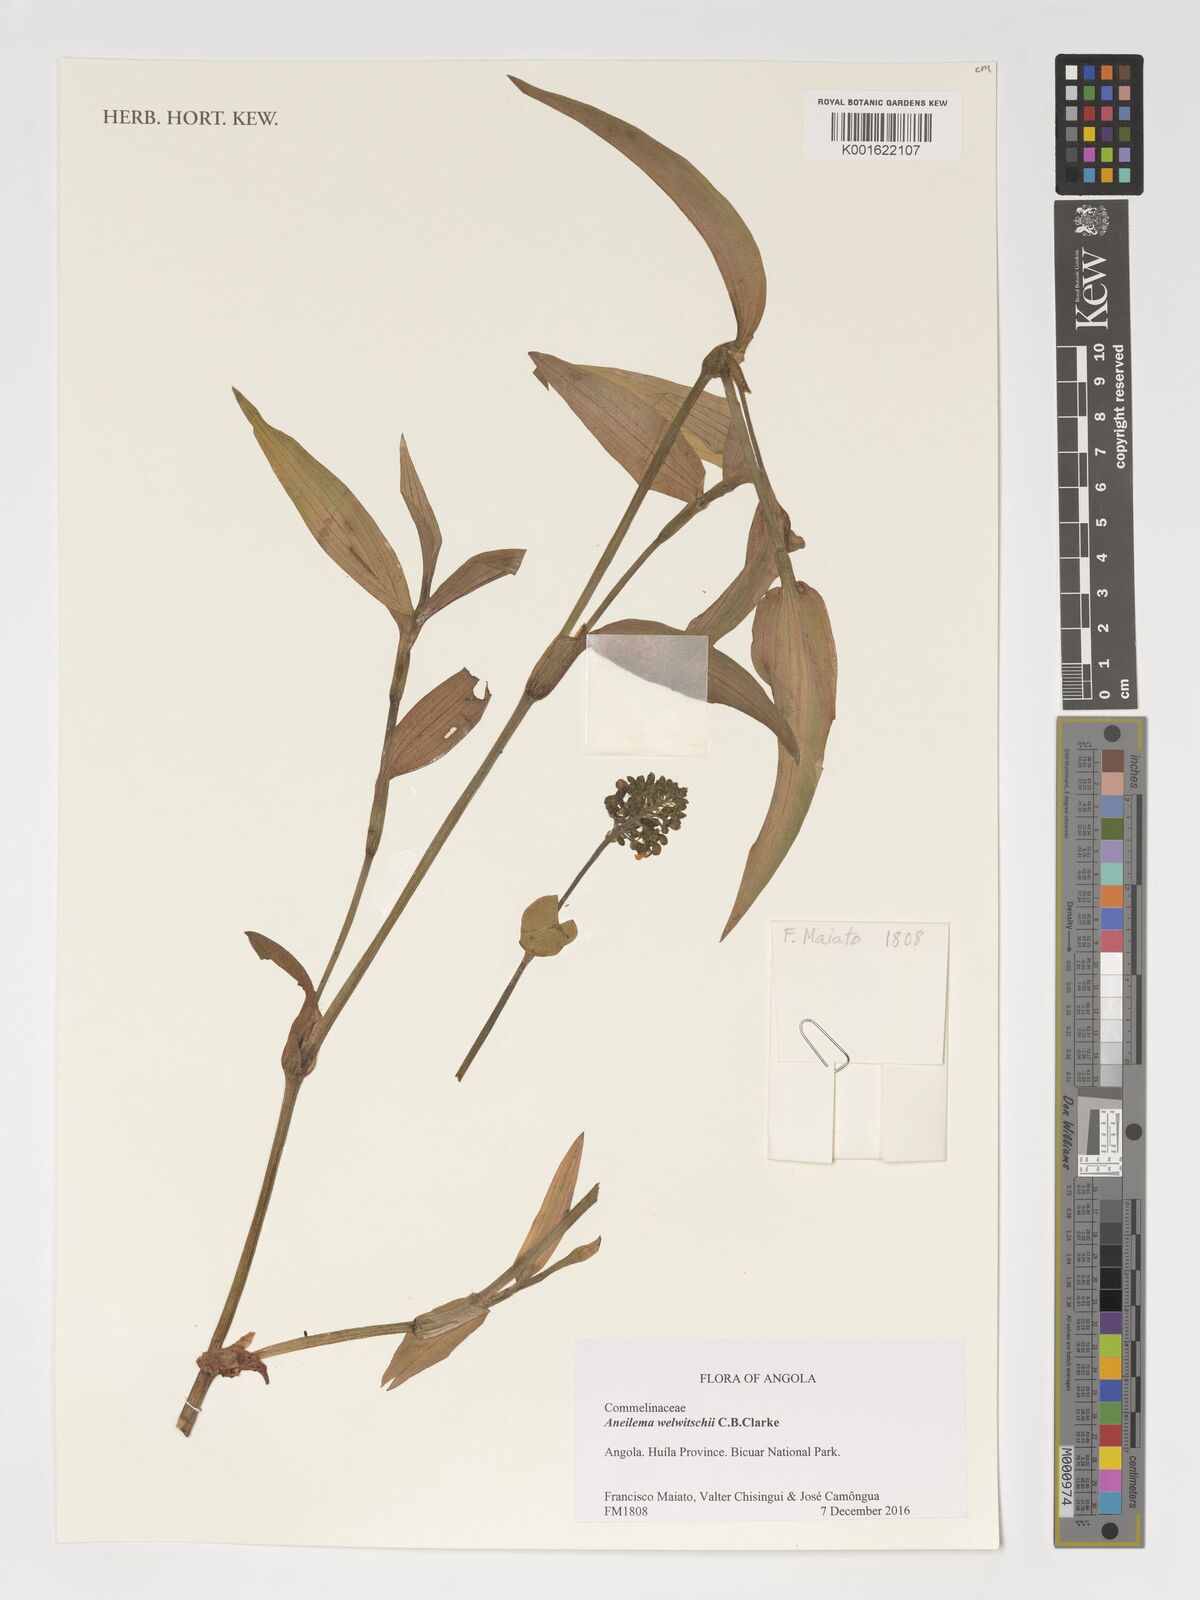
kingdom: Plantae
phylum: Tracheophyta
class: Liliopsida
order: Commelinales
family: Commelinaceae
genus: Aneilema
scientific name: Aneilema welwitschii
